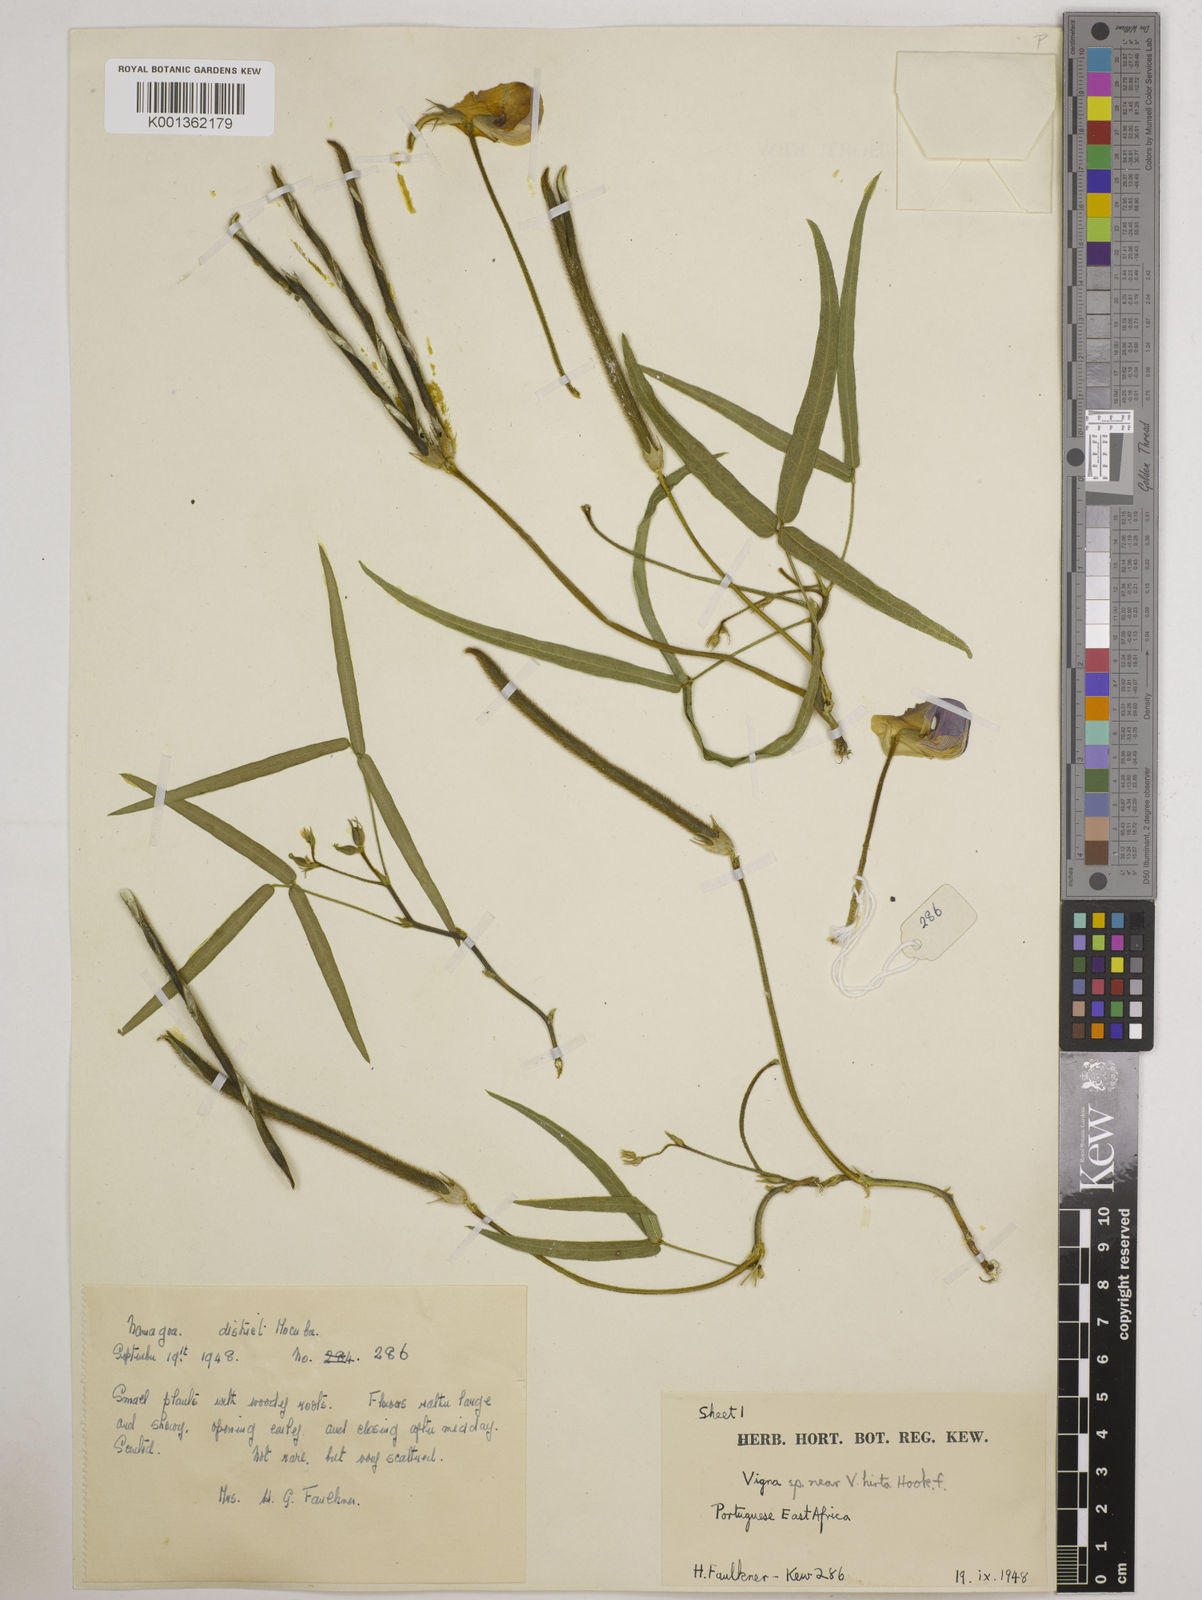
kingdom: Plantae
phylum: Tracheophyta
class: Magnoliopsida
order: Fabales
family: Fabaceae
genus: Vigna
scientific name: Vigna vexillata
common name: Zombi pea
